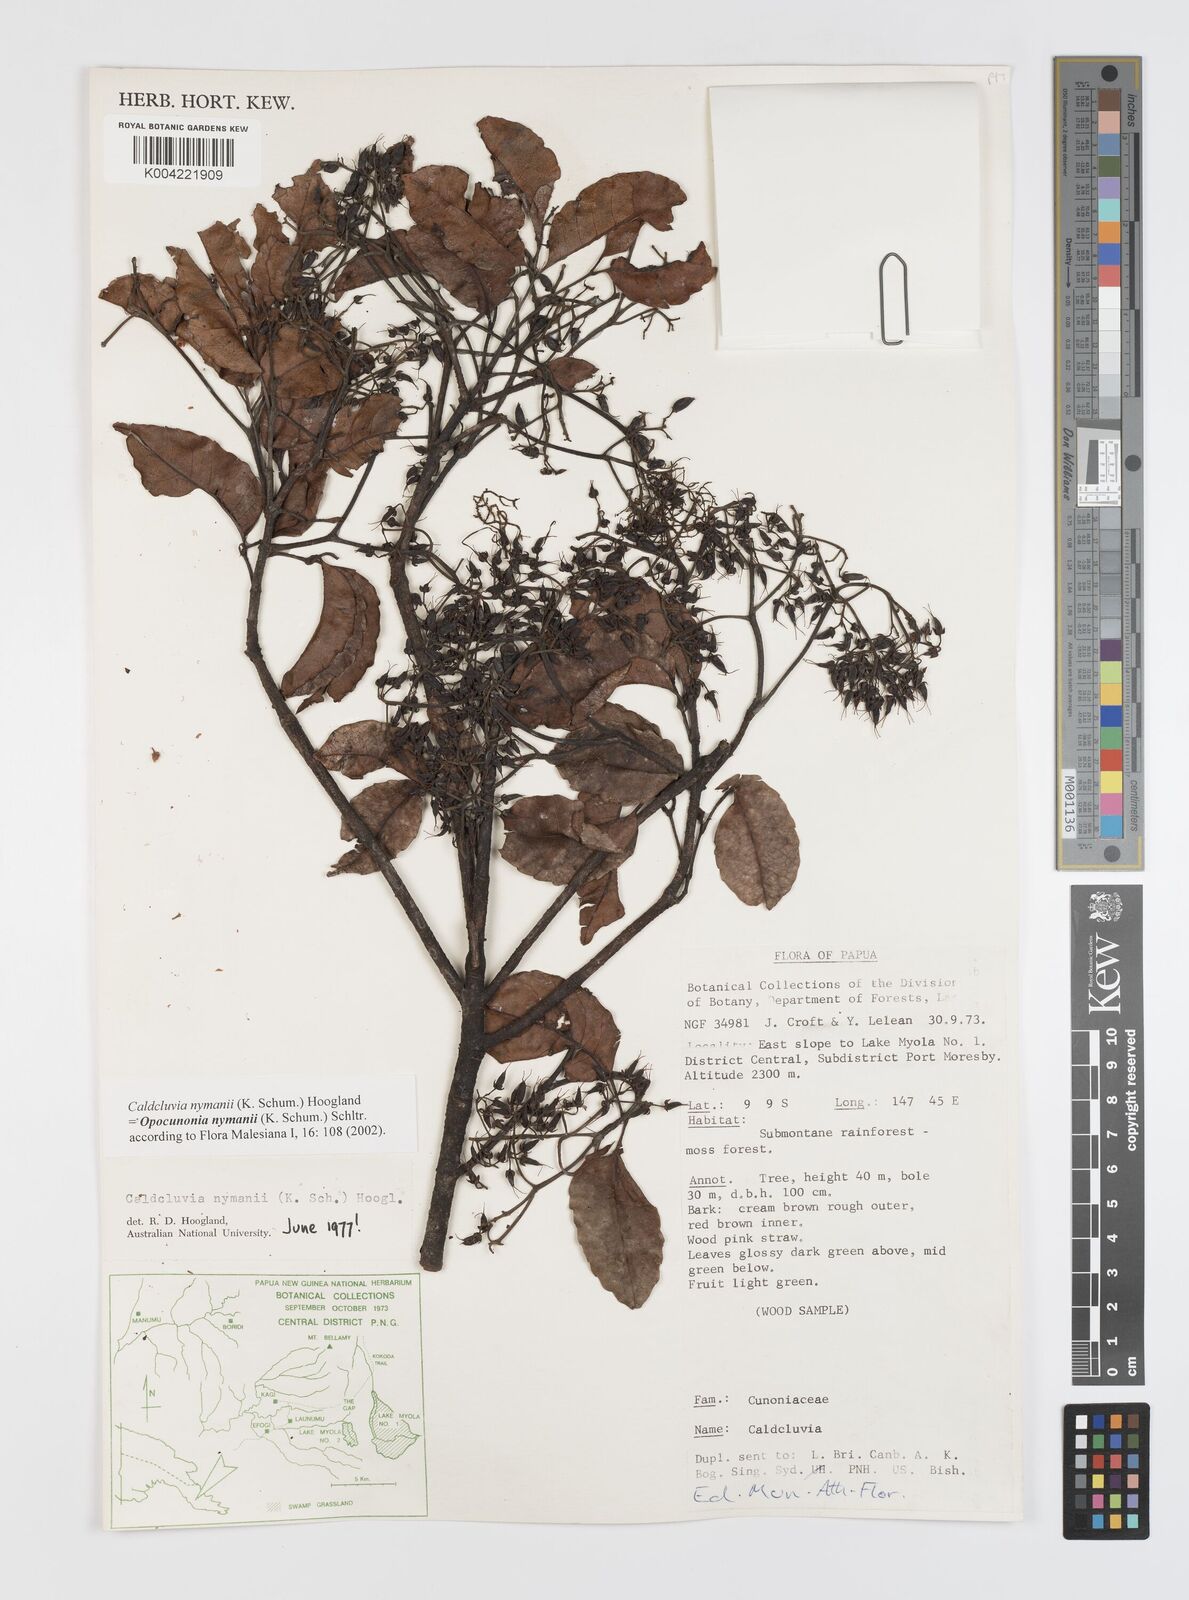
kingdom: Plantae
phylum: Tracheophyta
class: Magnoliopsida
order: Oxalidales
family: Cunoniaceae
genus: Opocunonia
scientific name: Opocunonia nymanii
